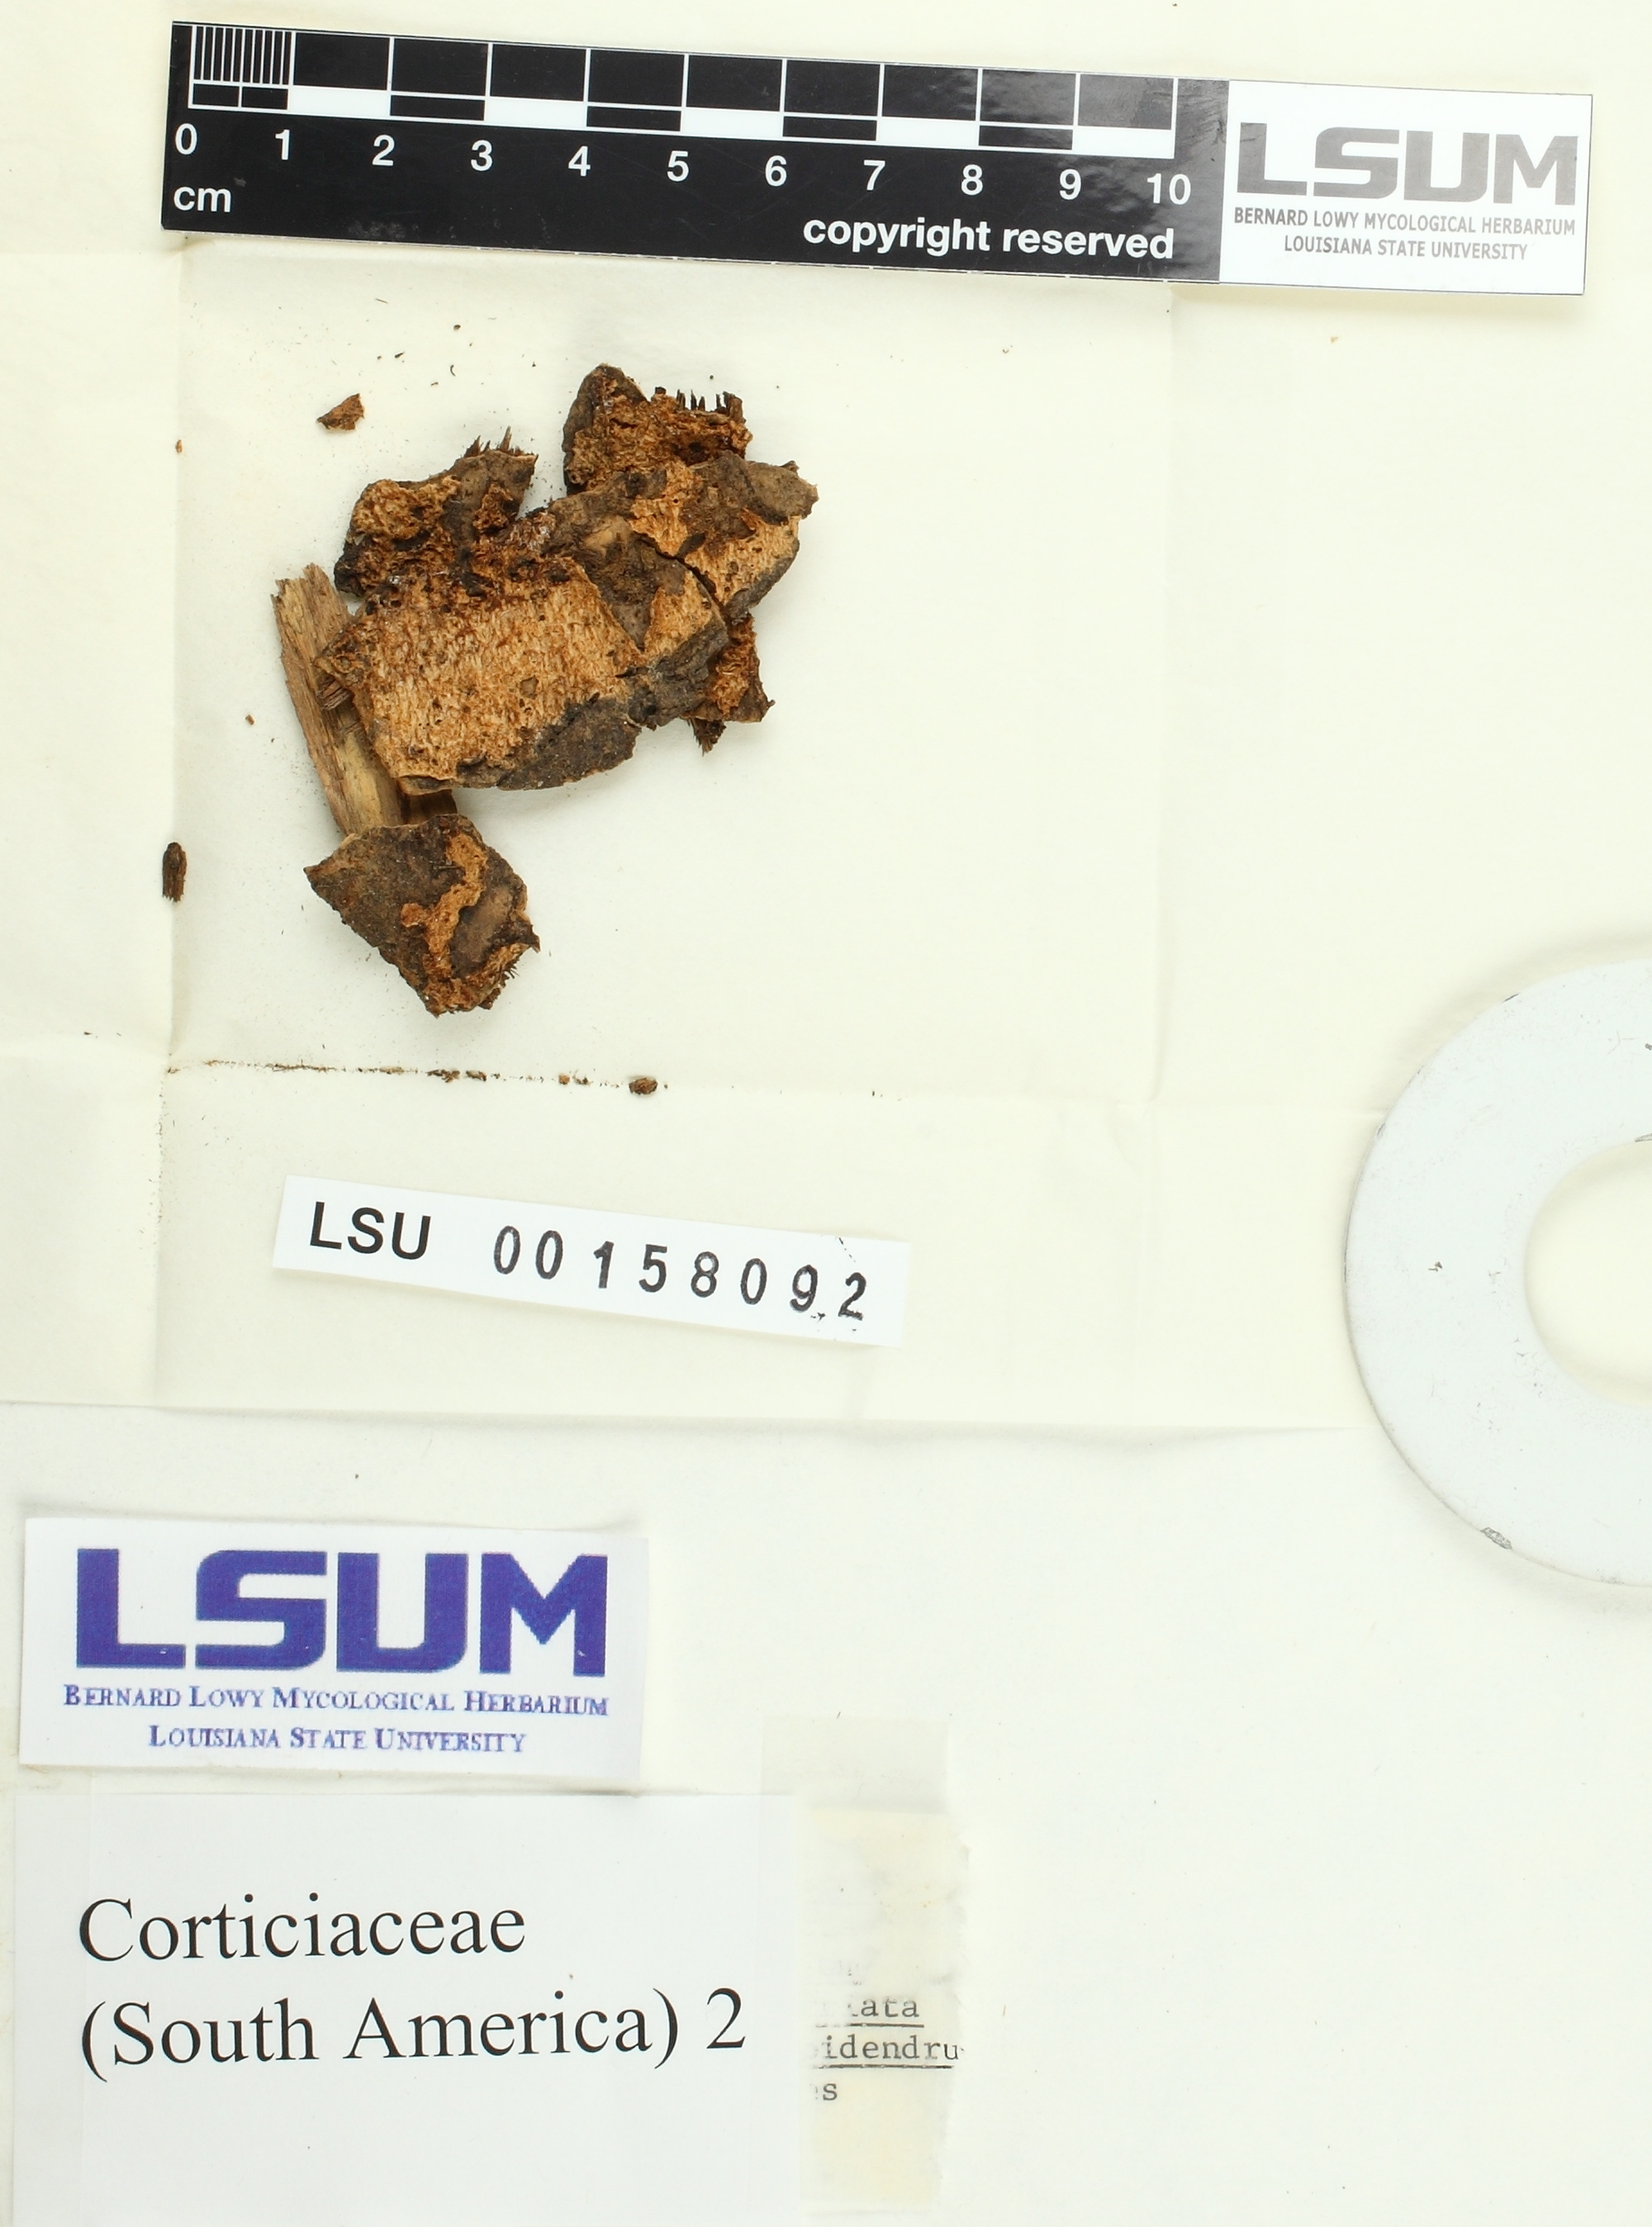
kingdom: Fungi
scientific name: Fungi
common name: Fungi
